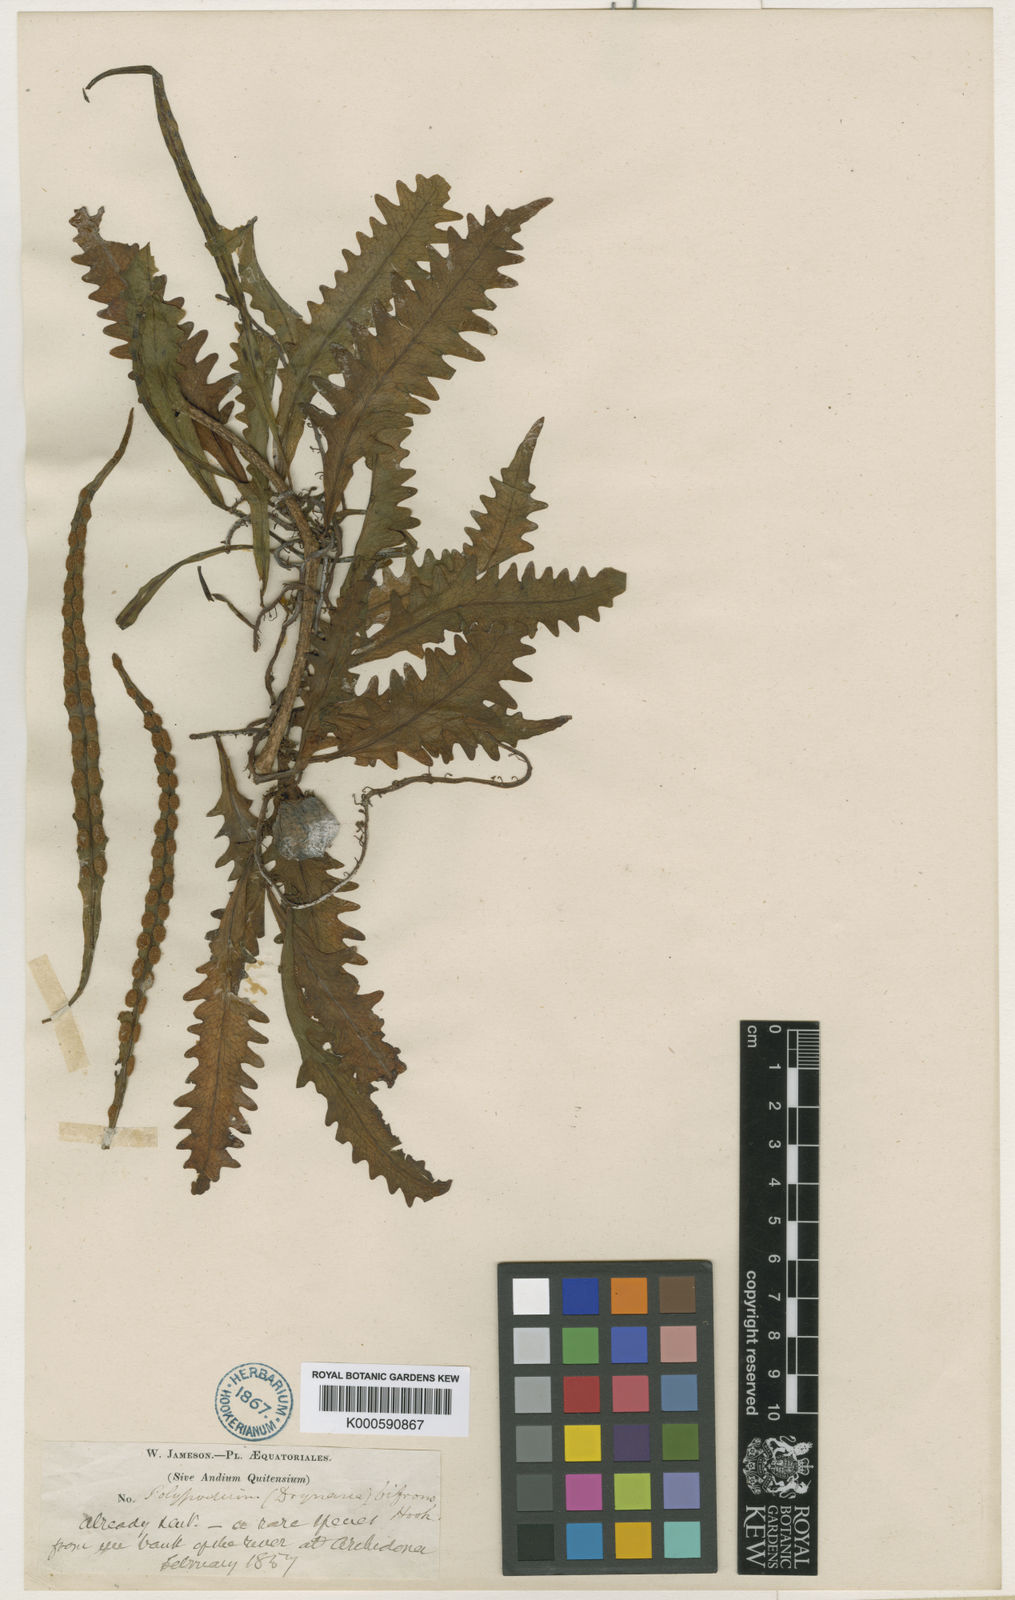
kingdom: Plantae
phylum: Tracheophyta
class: Polypodiopsida
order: Polypodiales
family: Polypodiaceae
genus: Microgramma
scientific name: Microgramma bifrons
